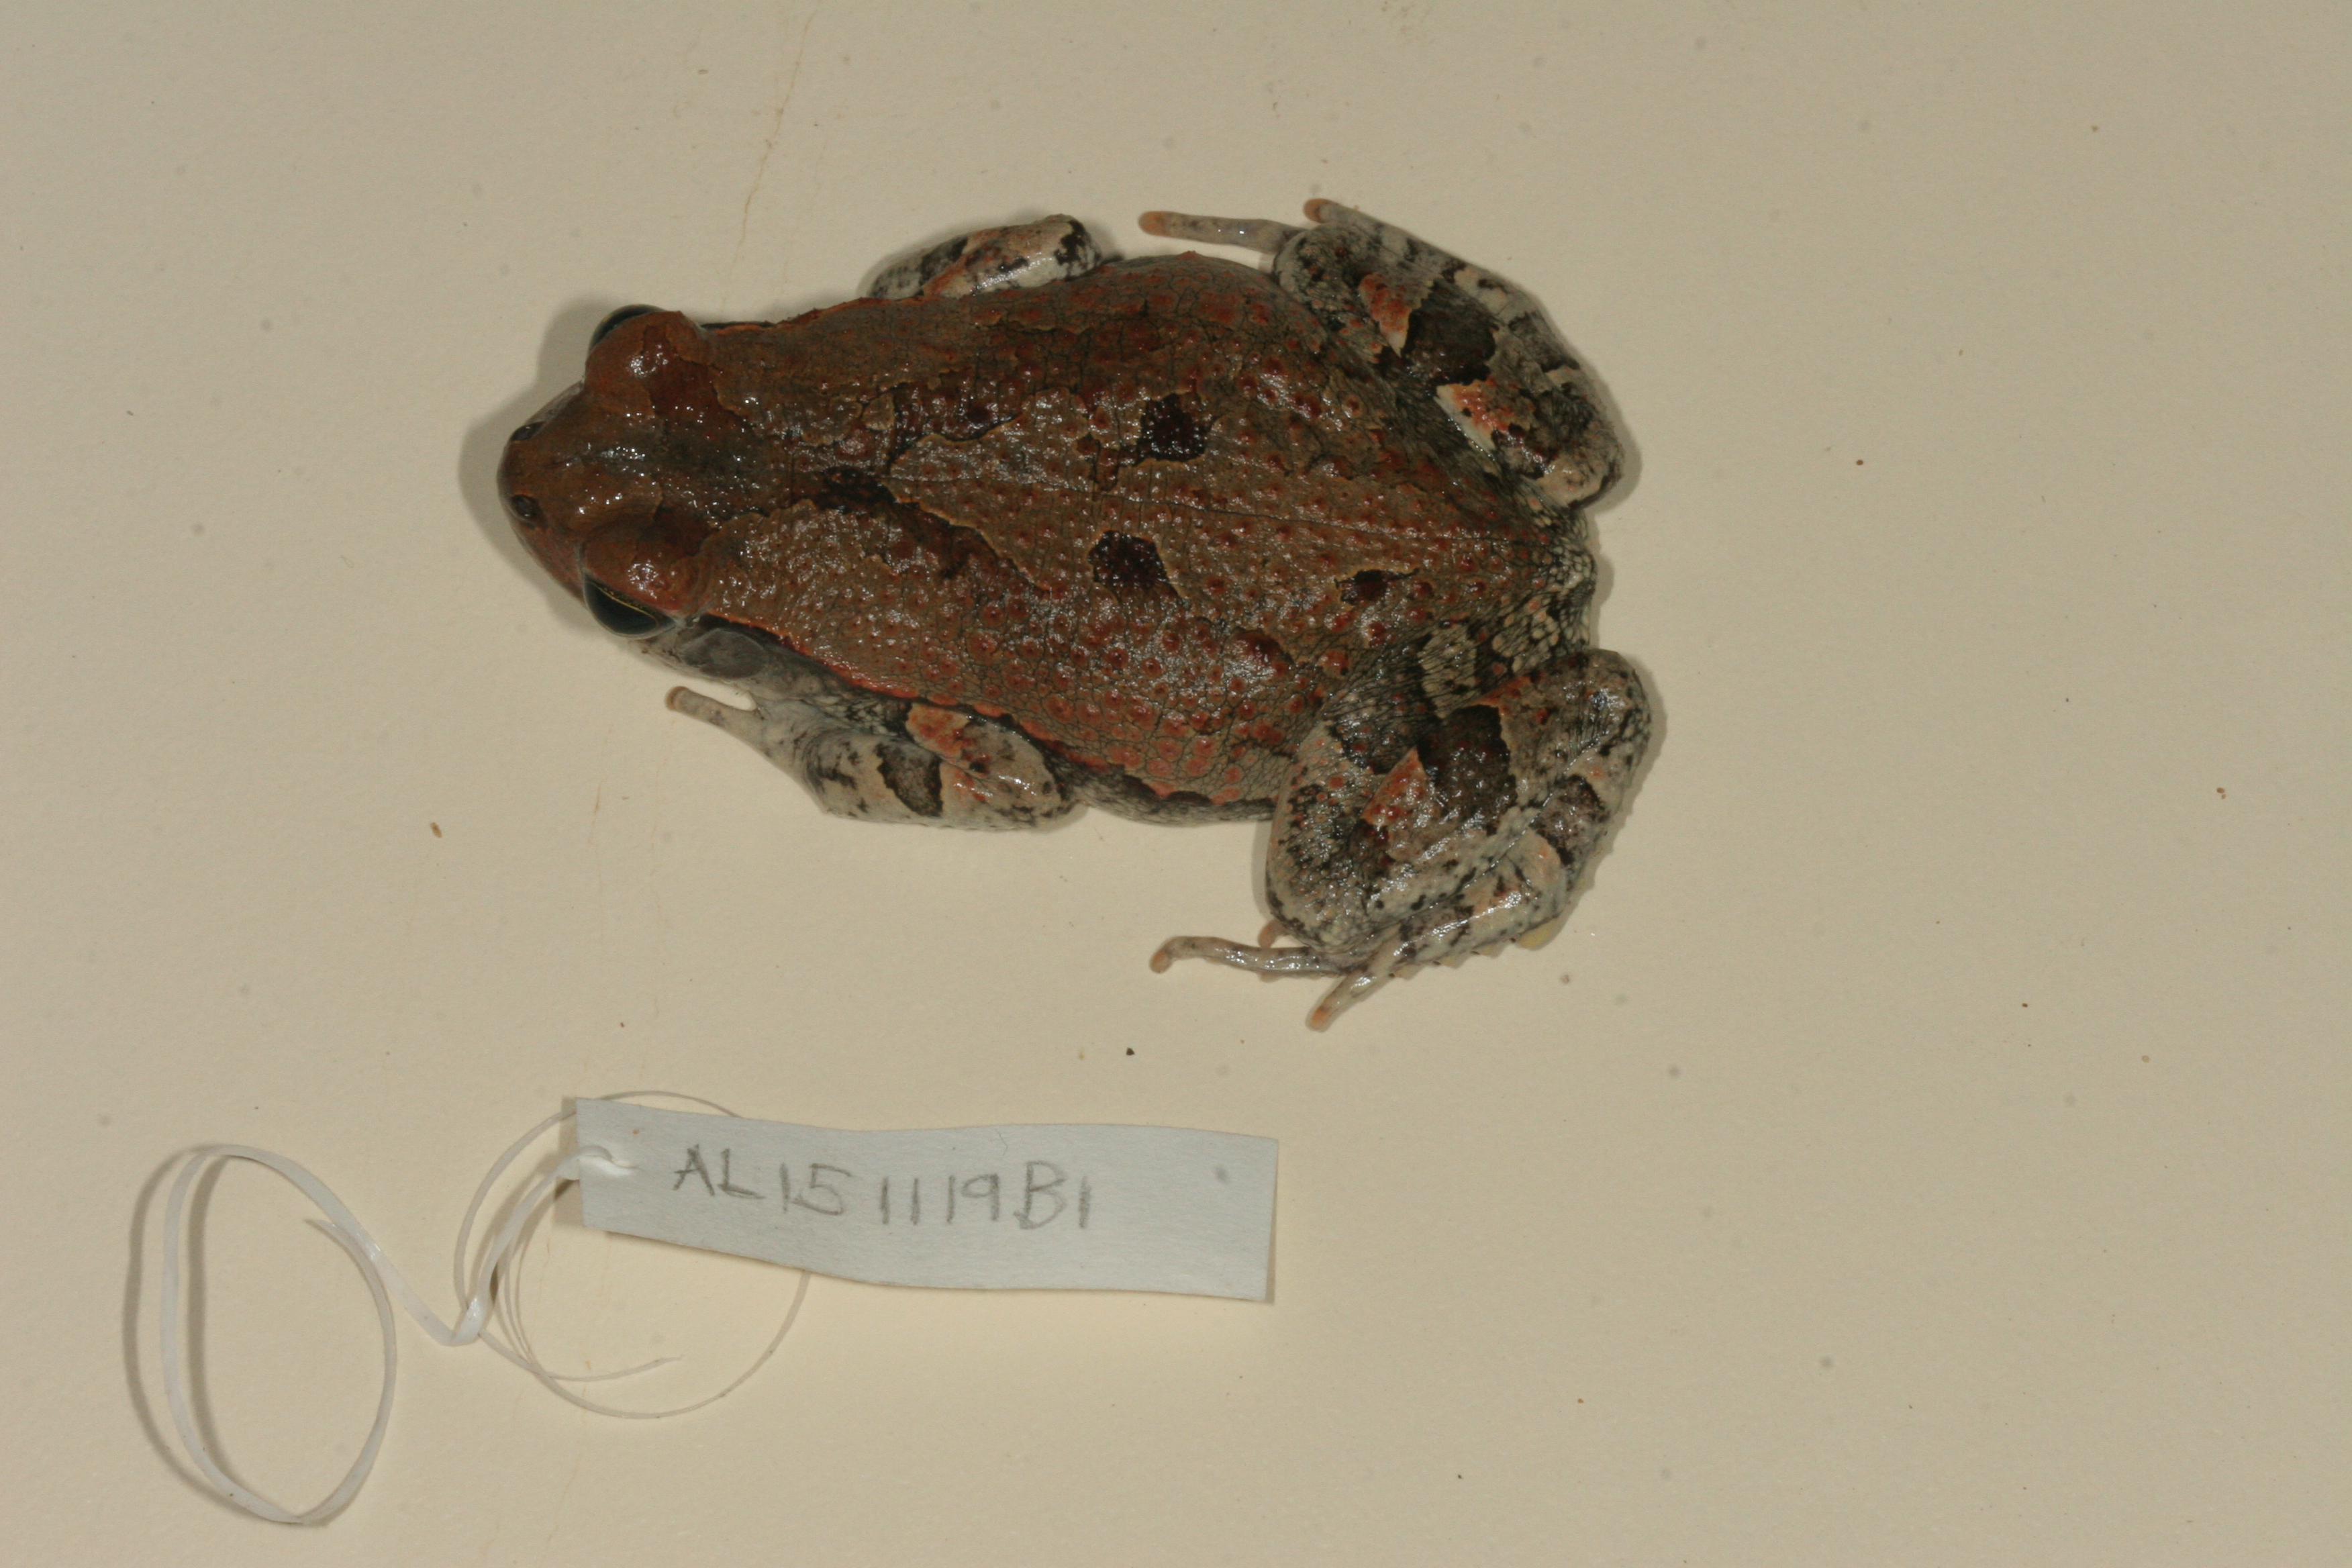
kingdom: Animalia
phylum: Chordata
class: Amphibia
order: Anura
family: Bufonidae
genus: Schismaderma
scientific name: Schismaderma carens
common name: African split-skin toad
